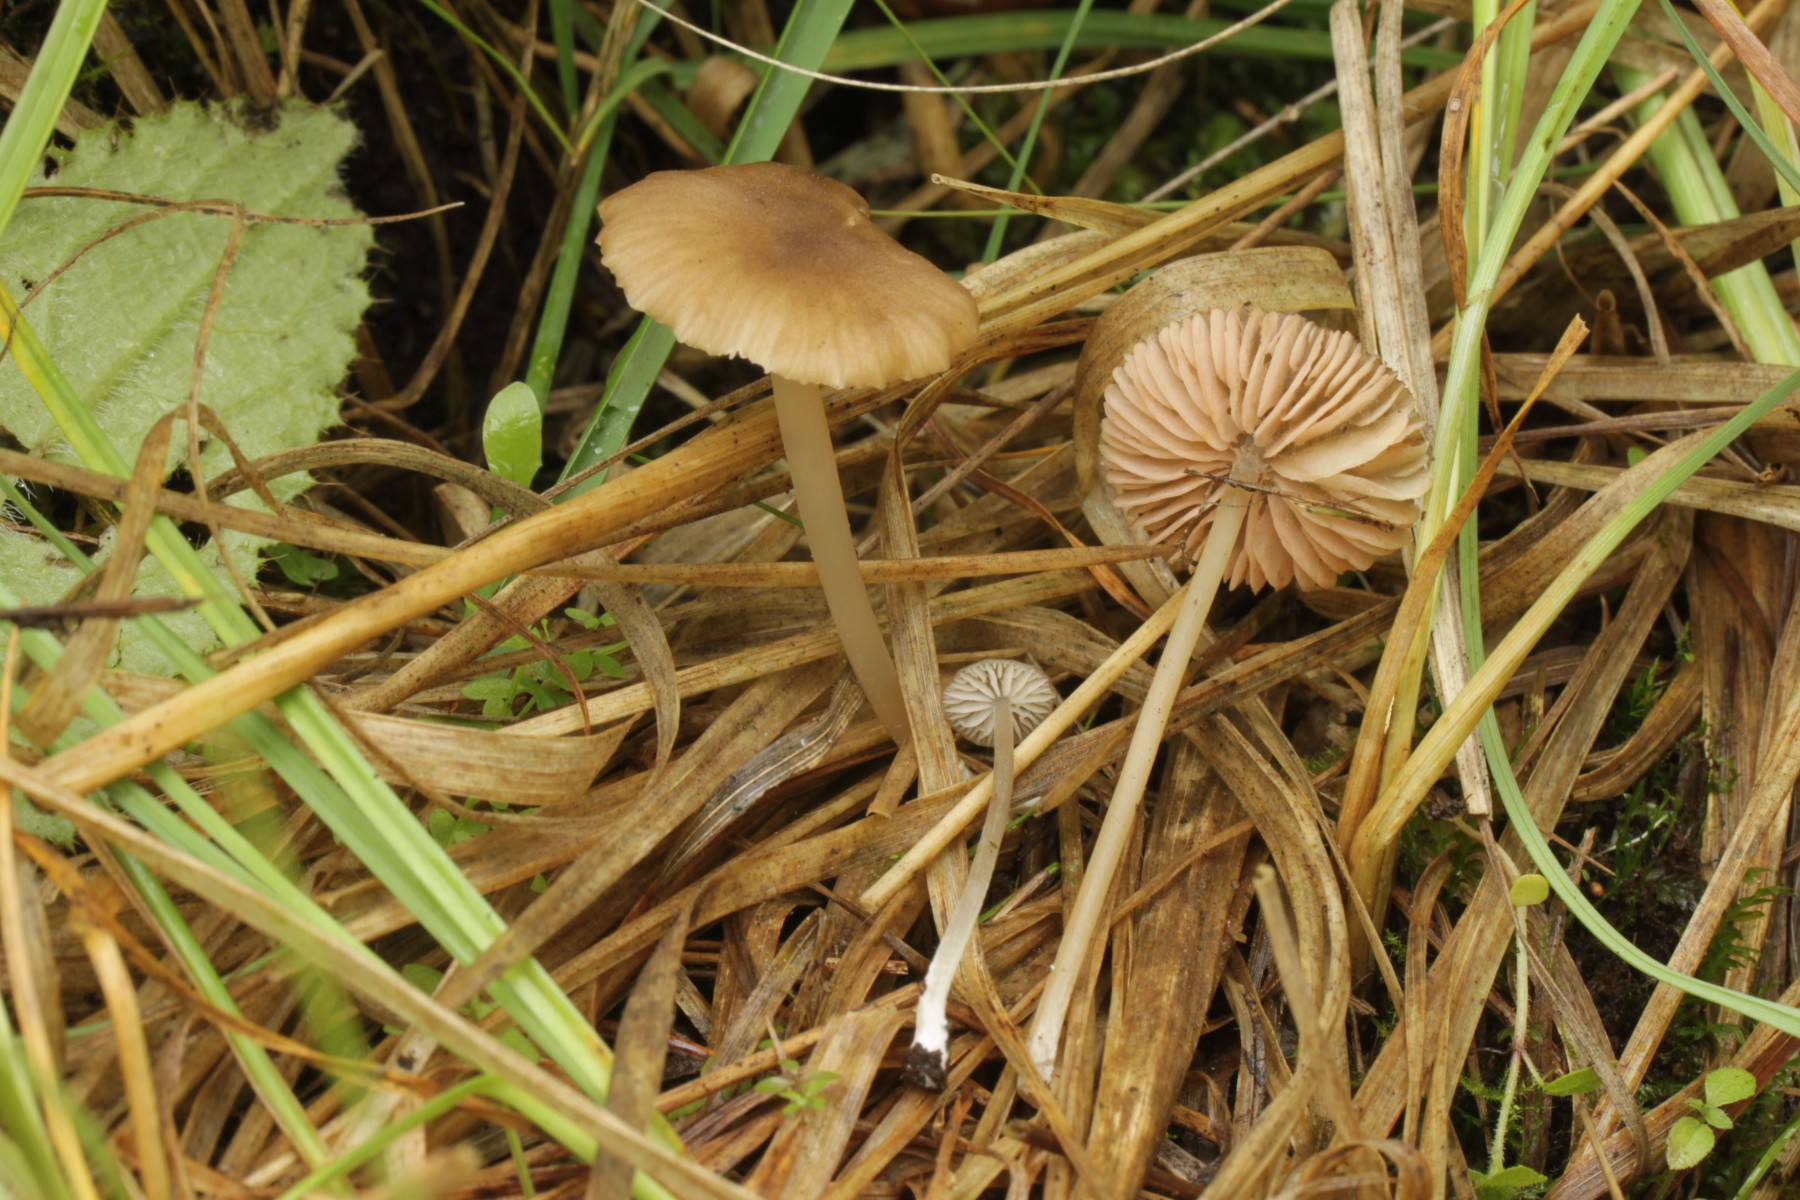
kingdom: Fungi
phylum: Basidiomycota
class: Agaricomycetes
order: Agaricales
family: Entolomataceae
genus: Entoloma
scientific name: Entoloma cocles
